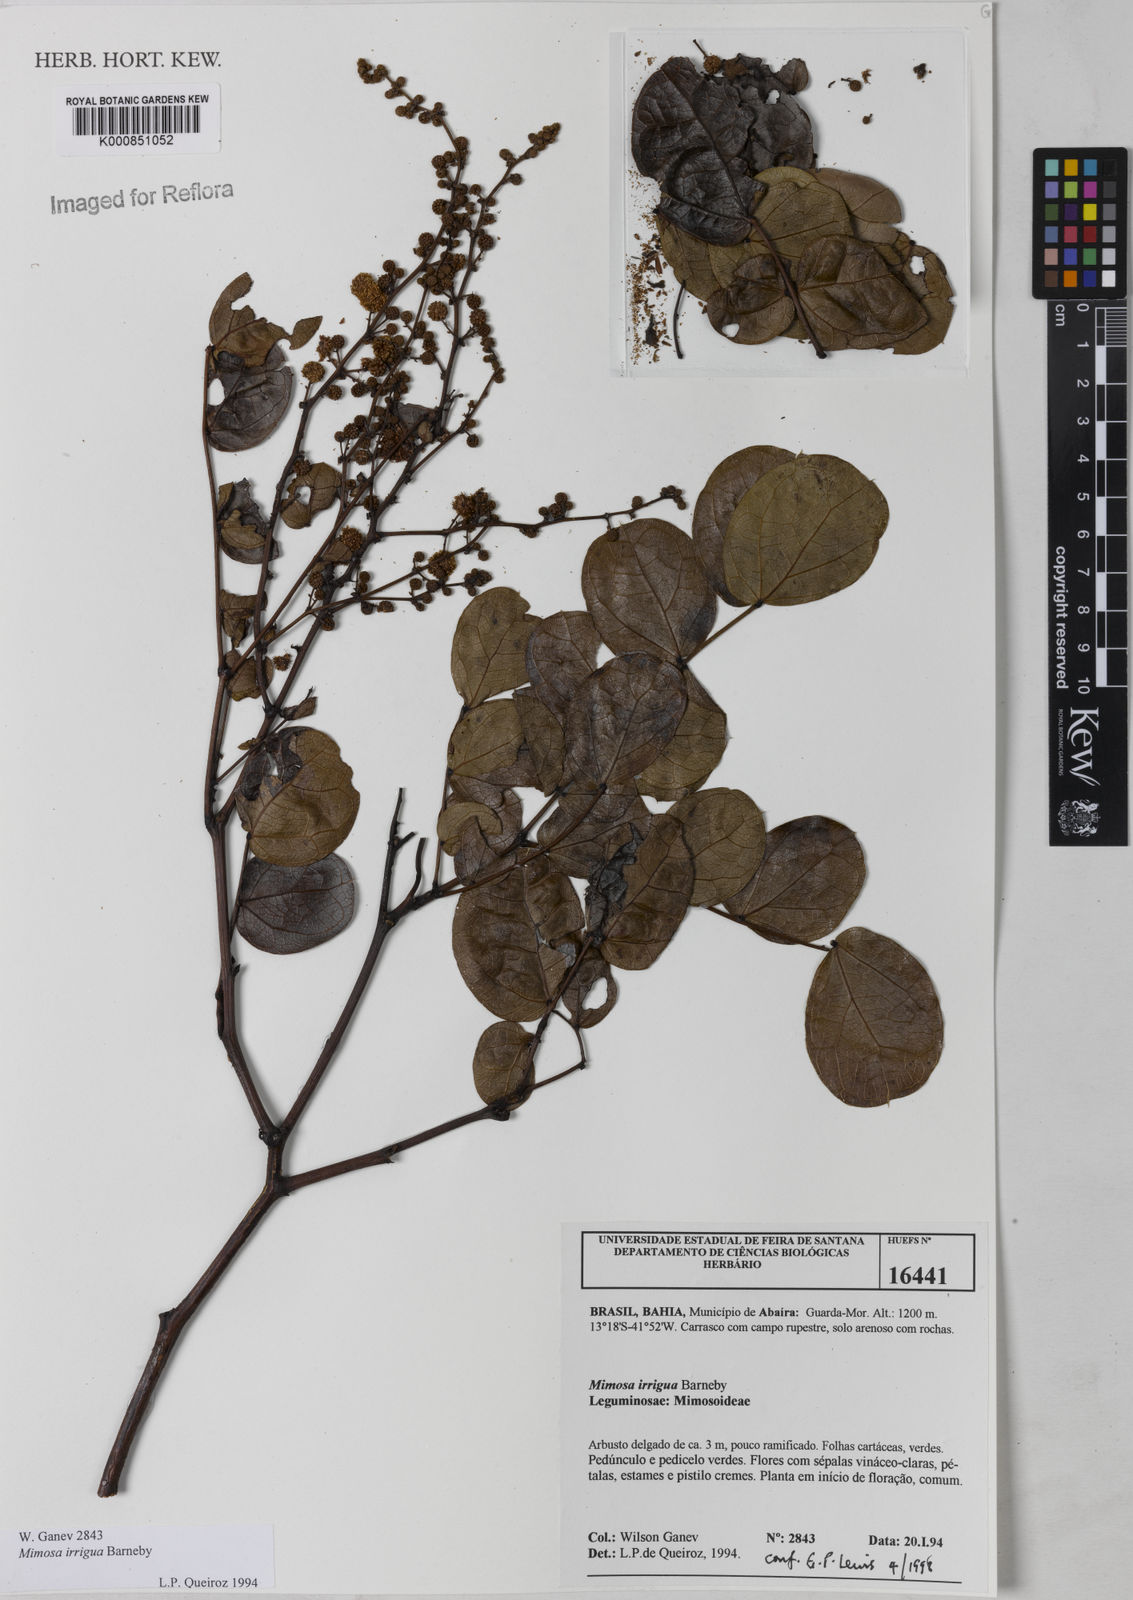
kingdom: Plantae
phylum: Tracheophyta
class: Magnoliopsida
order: Fabales
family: Fabaceae
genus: Mimosa
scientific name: Mimosa irrigua
